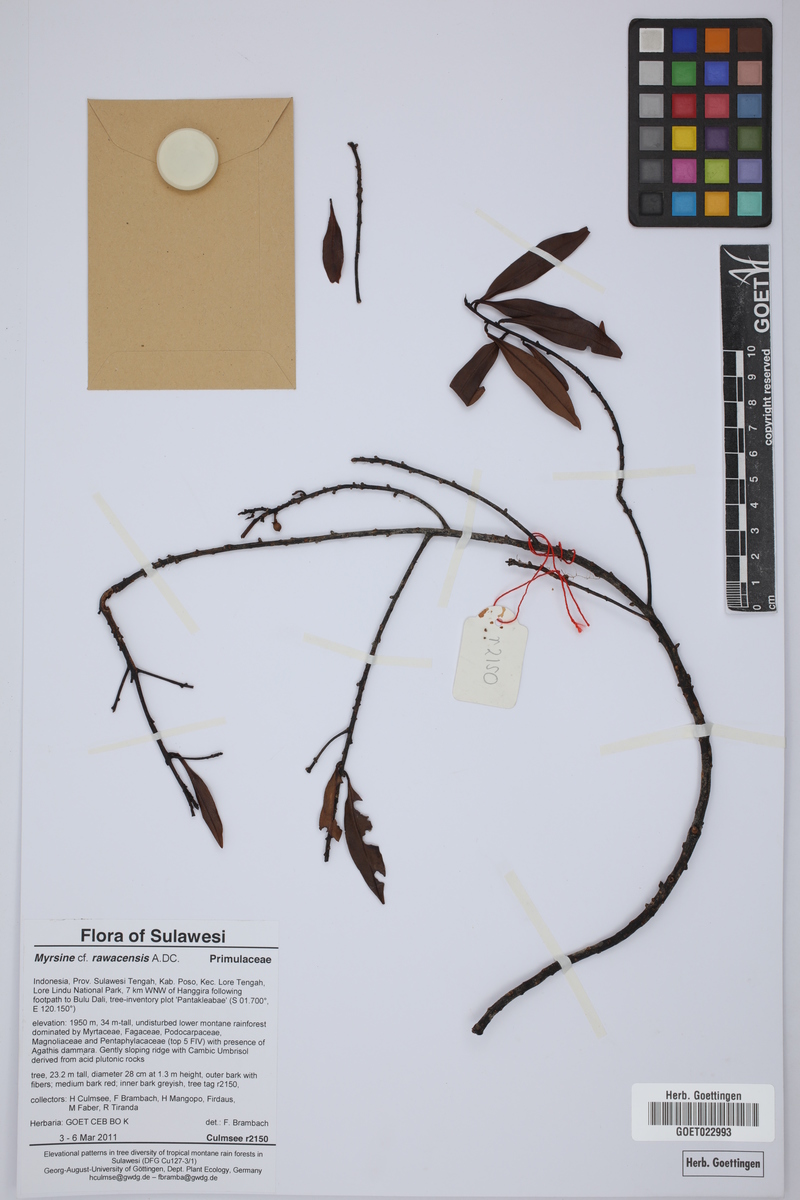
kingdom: Plantae
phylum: Tracheophyta
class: Magnoliopsida
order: Ericales
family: Primulaceae
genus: Myrsine
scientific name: Myrsine rawacensis
